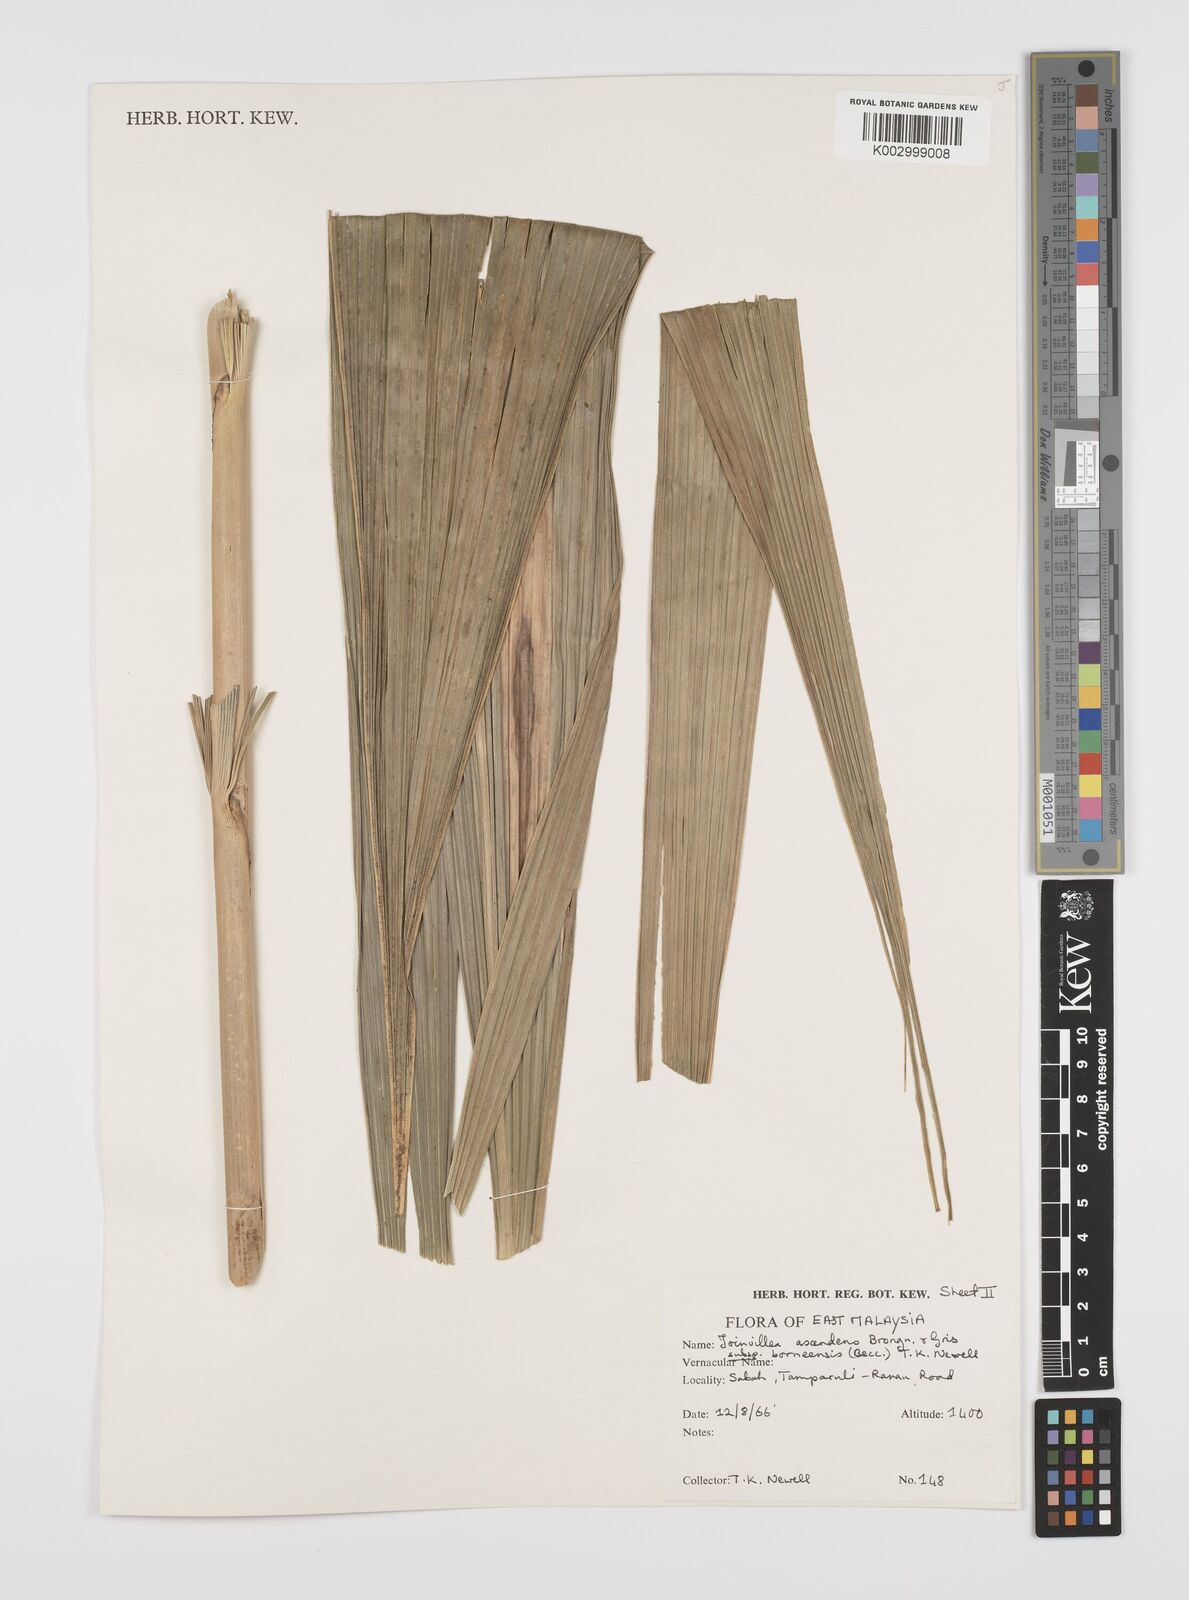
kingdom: Plantae
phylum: Tracheophyta
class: Liliopsida
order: Poales
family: Joinvilleaceae
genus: Joinvillea
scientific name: Joinvillea borneensis
